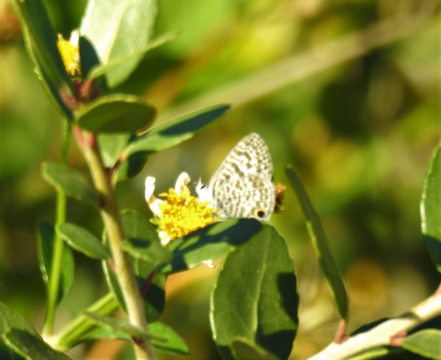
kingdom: Animalia
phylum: Arthropoda
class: Insecta
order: Lepidoptera
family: Lycaenidae
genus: Leptotes
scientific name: Leptotes cassius
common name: Cassius Blue
